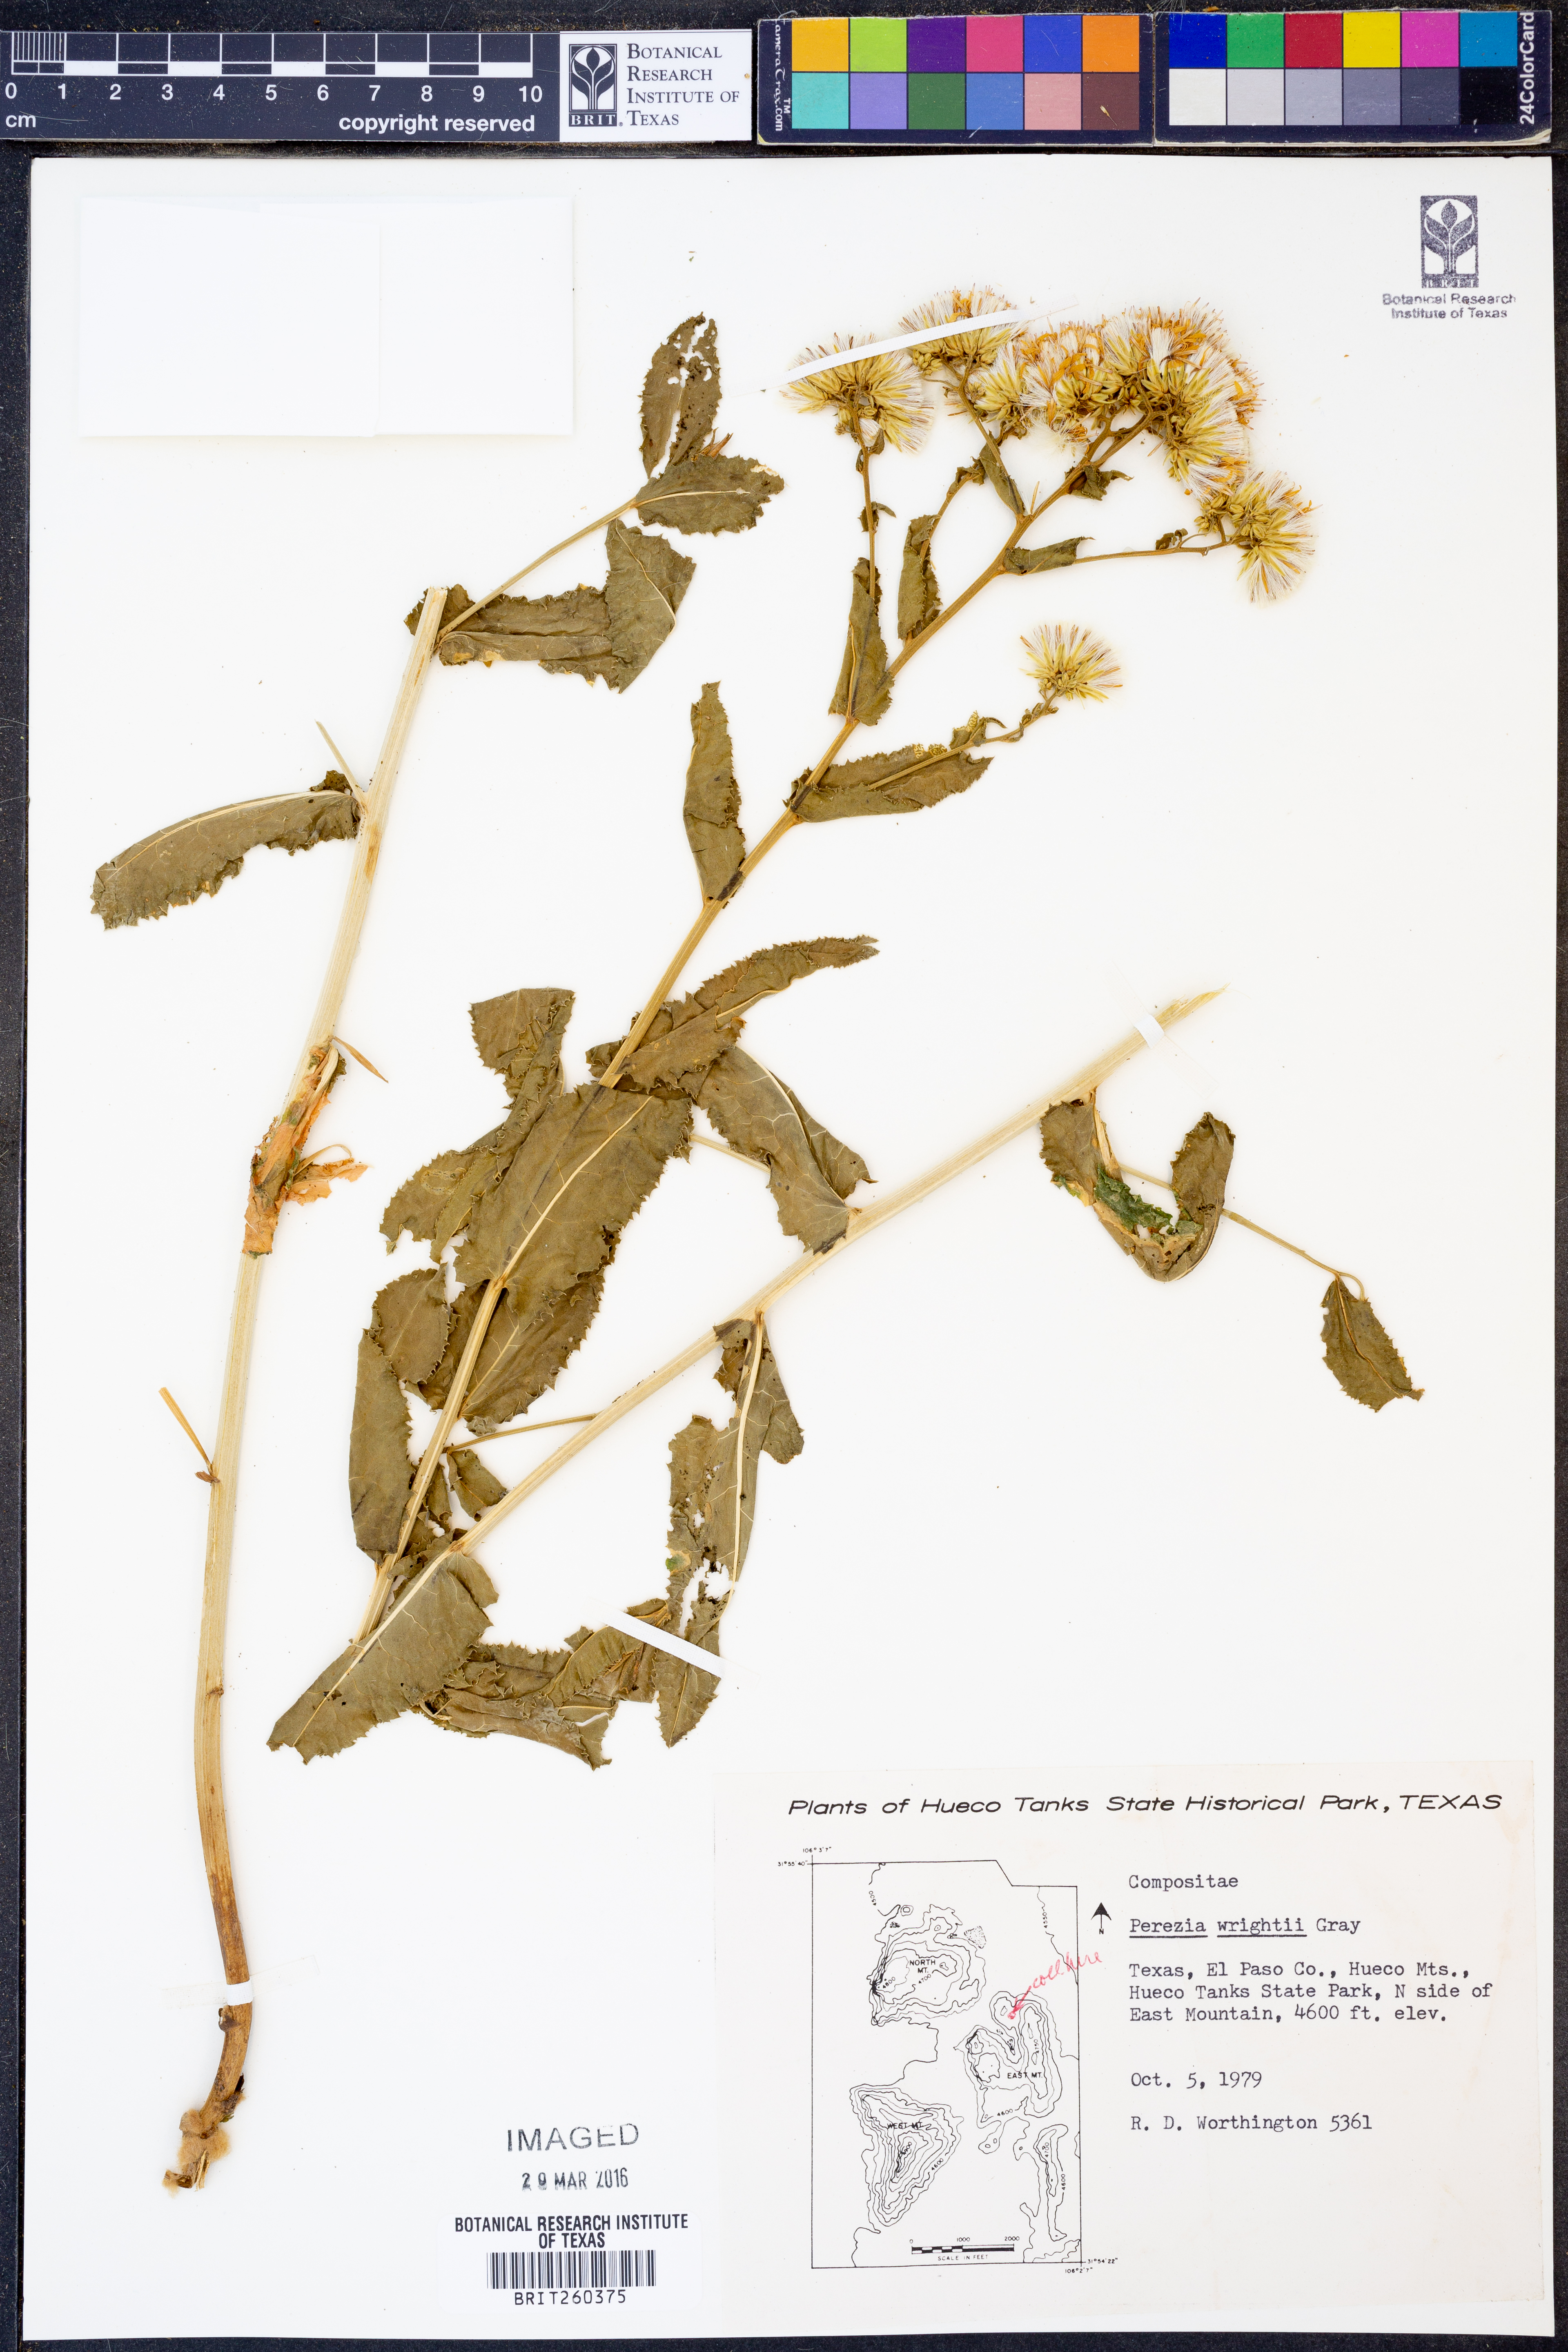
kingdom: Plantae
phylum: Tracheophyta
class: Magnoliopsida
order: Asterales
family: Asteraceae
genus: Acourtia
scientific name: Acourtia wrightii
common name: Brownfoot
